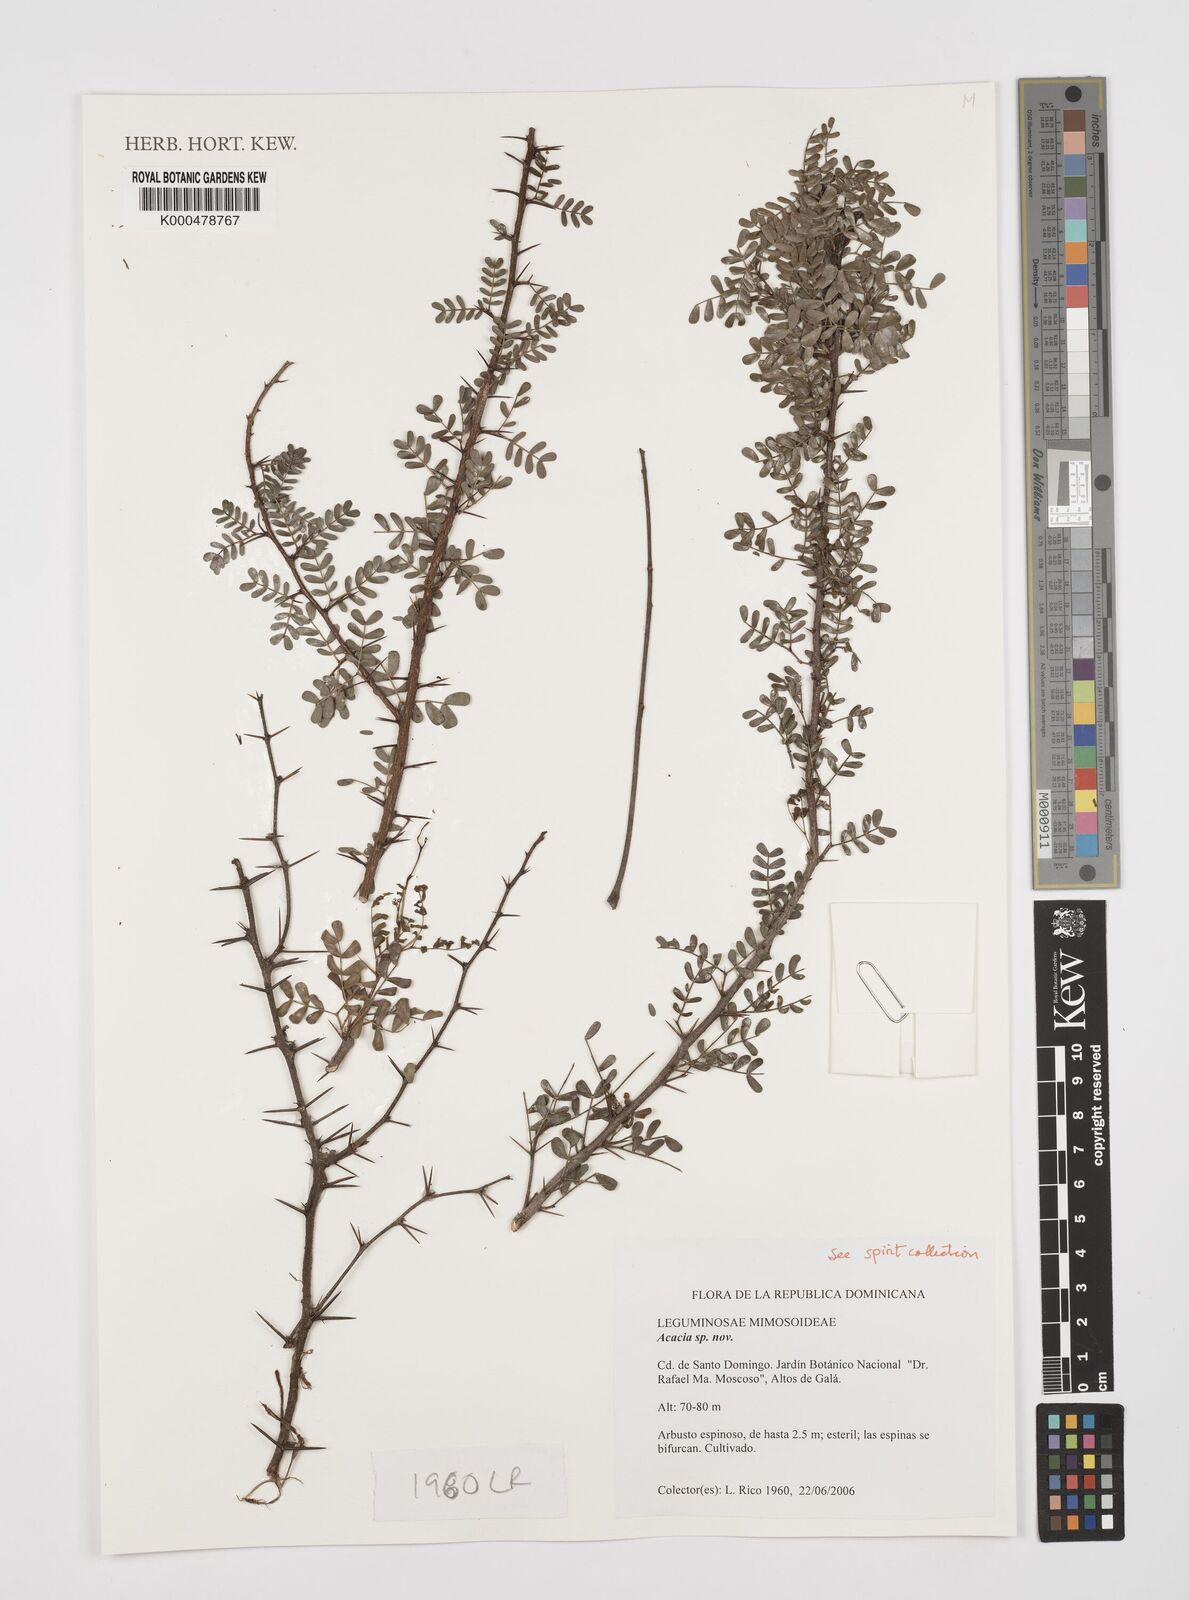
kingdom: Plantae
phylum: Tracheophyta
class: Magnoliopsida
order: Fabales
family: Fabaceae
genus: Acacia
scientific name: Acacia
